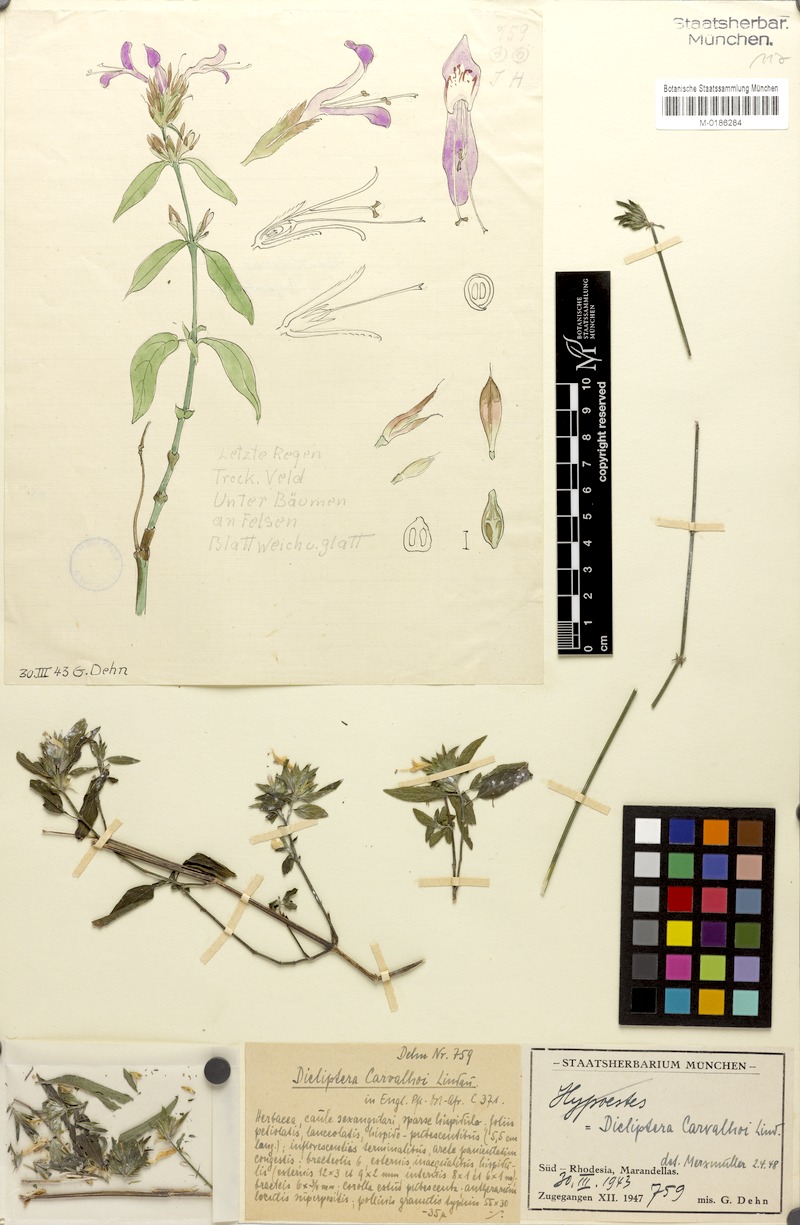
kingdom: Plantae
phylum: Tracheophyta
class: Magnoliopsida
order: Lamiales
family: Acanthaceae
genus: Dicliptera
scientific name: Dicliptera carvalhoi
